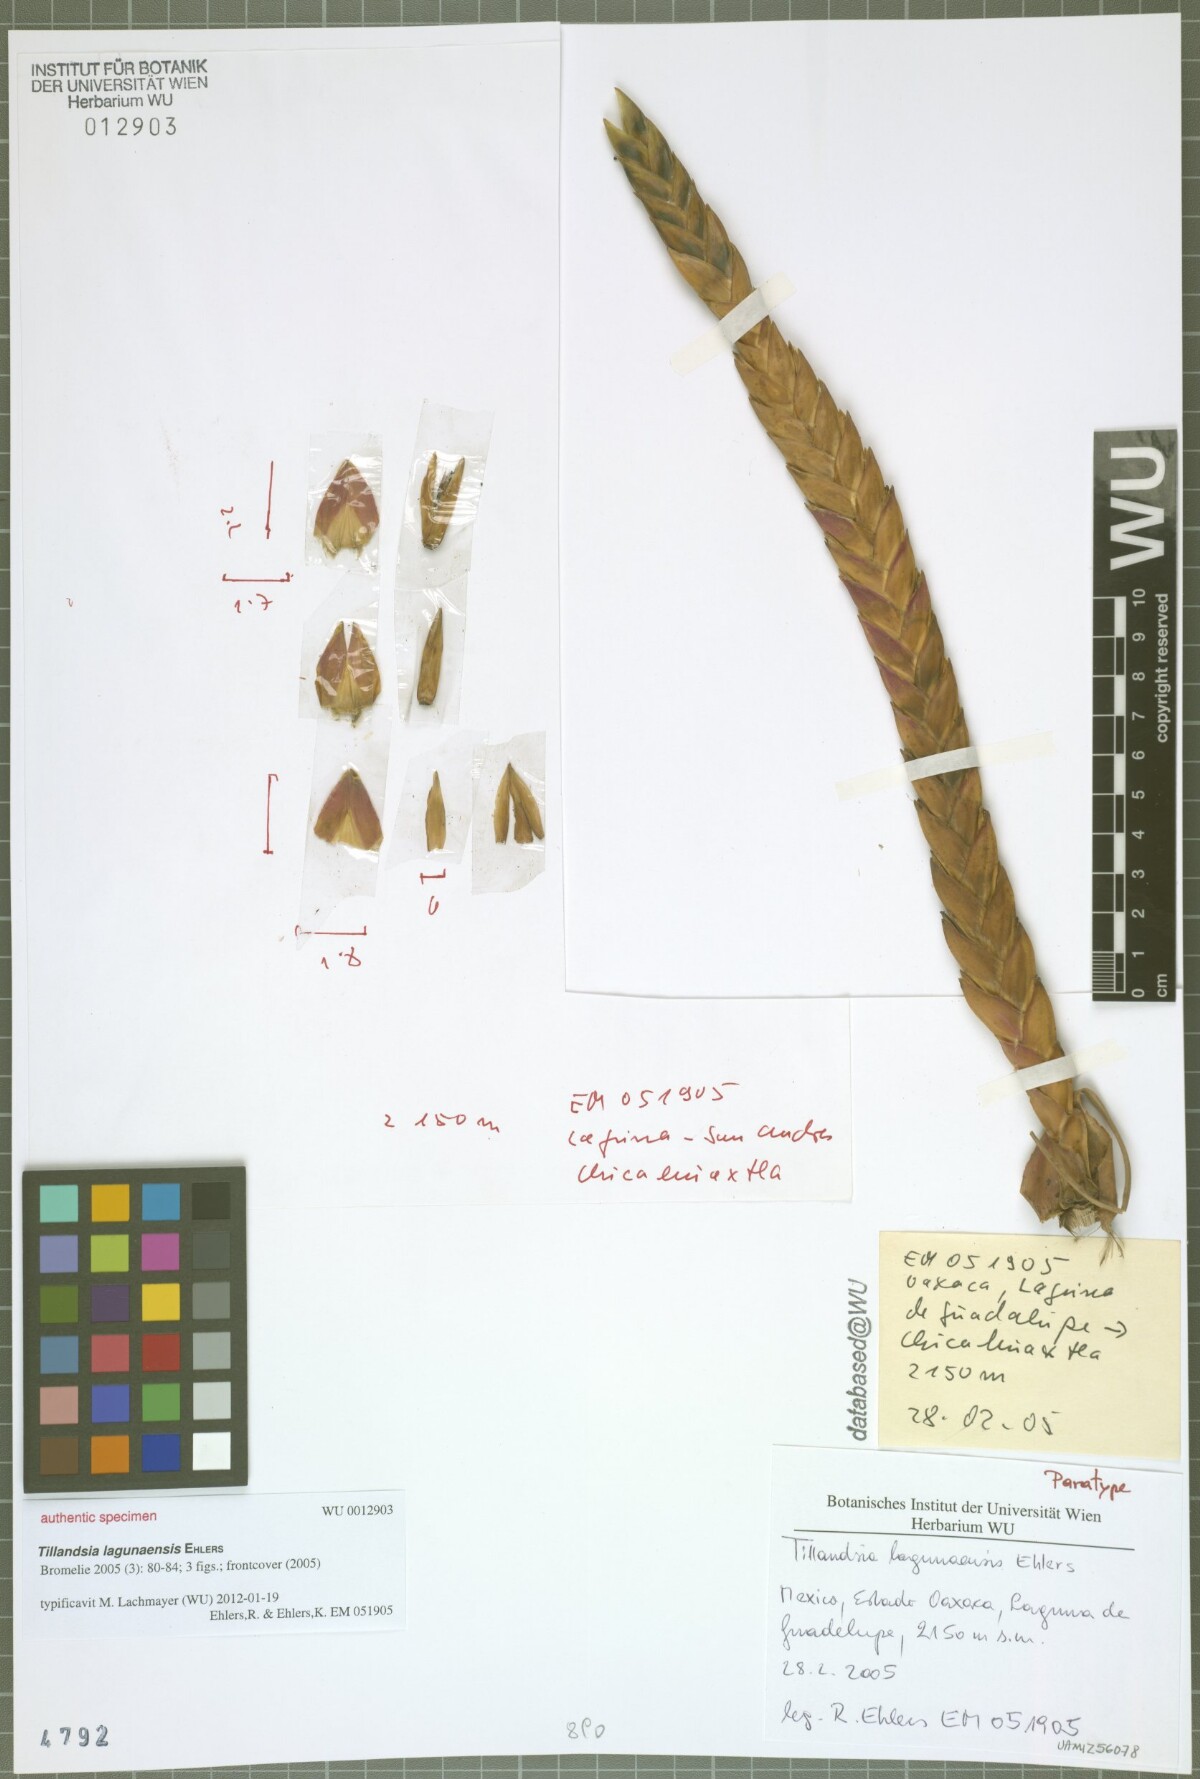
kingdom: Plantae
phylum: Tracheophyta
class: Liliopsida
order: Poales
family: Bromeliaceae
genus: Tillandsia
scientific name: Tillandsia lagunaensis
